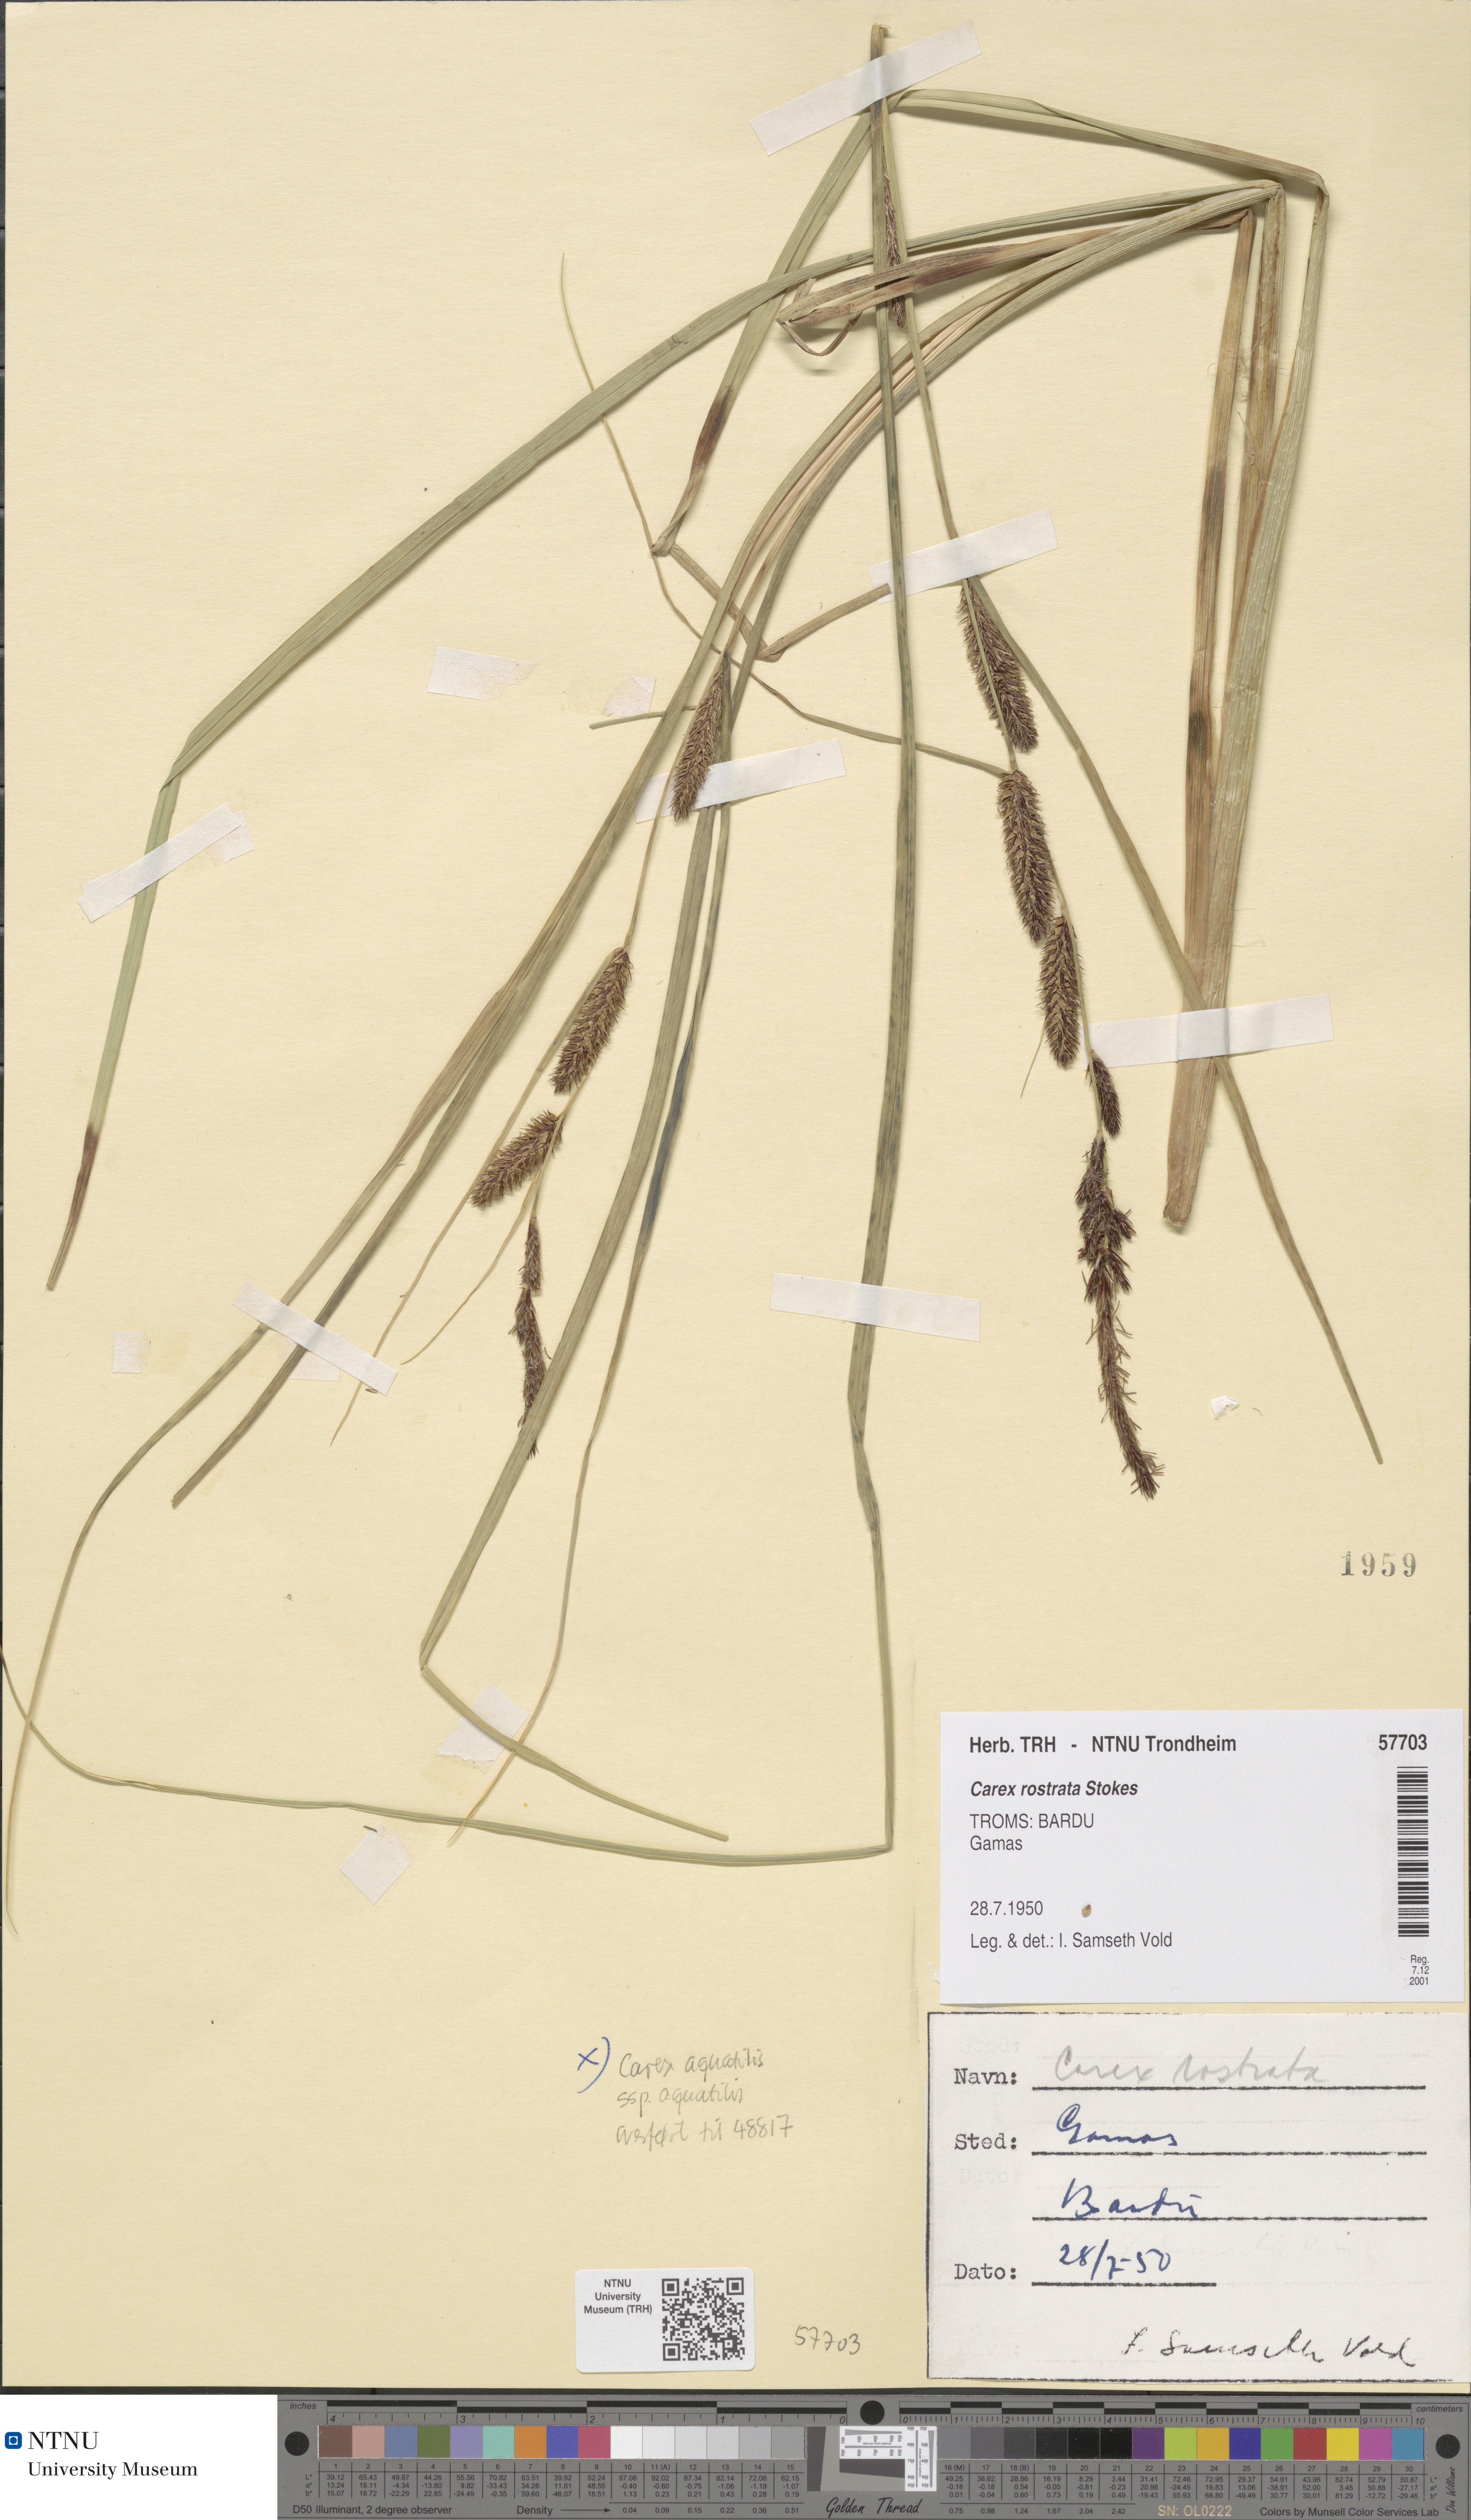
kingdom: Plantae
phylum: Tracheophyta
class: Liliopsida
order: Poales
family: Cyperaceae
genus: Carex
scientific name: Carex rostrata
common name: Bottle sedge
